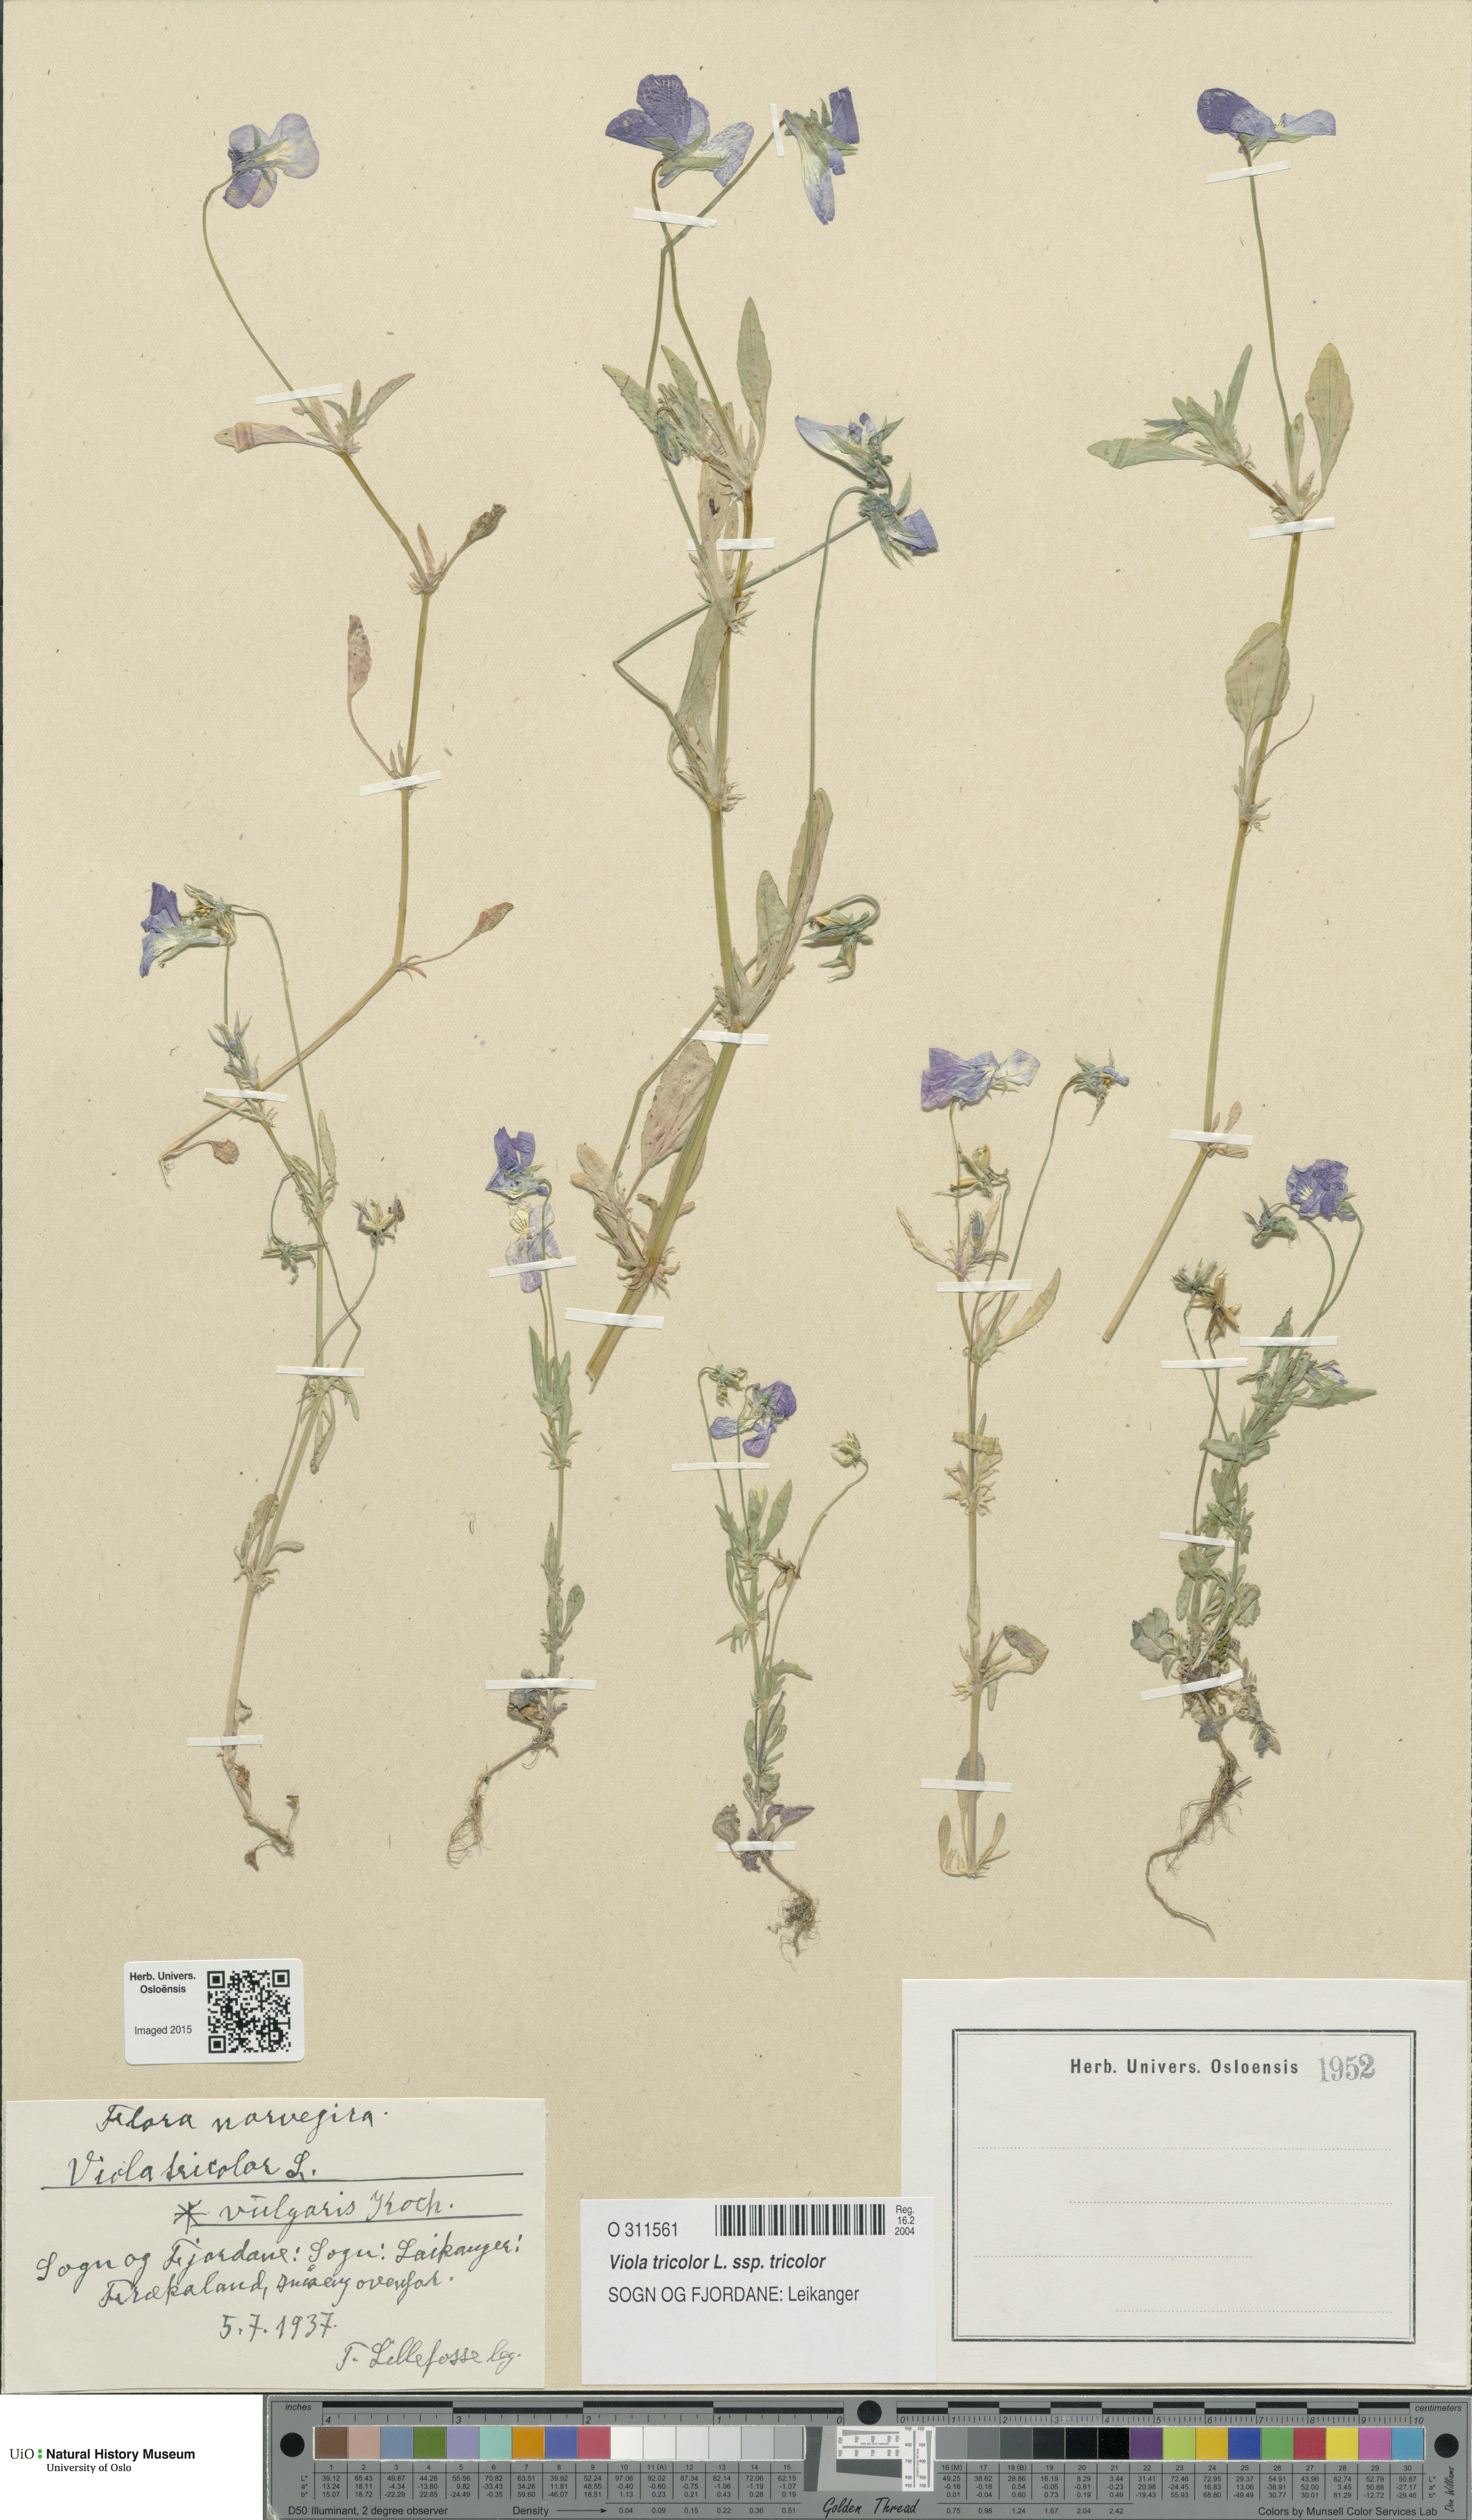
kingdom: Plantae
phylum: Tracheophyta
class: Magnoliopsida
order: Malpighiales
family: Violaceae
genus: Viola
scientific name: Viola tricolor
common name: Pansy
